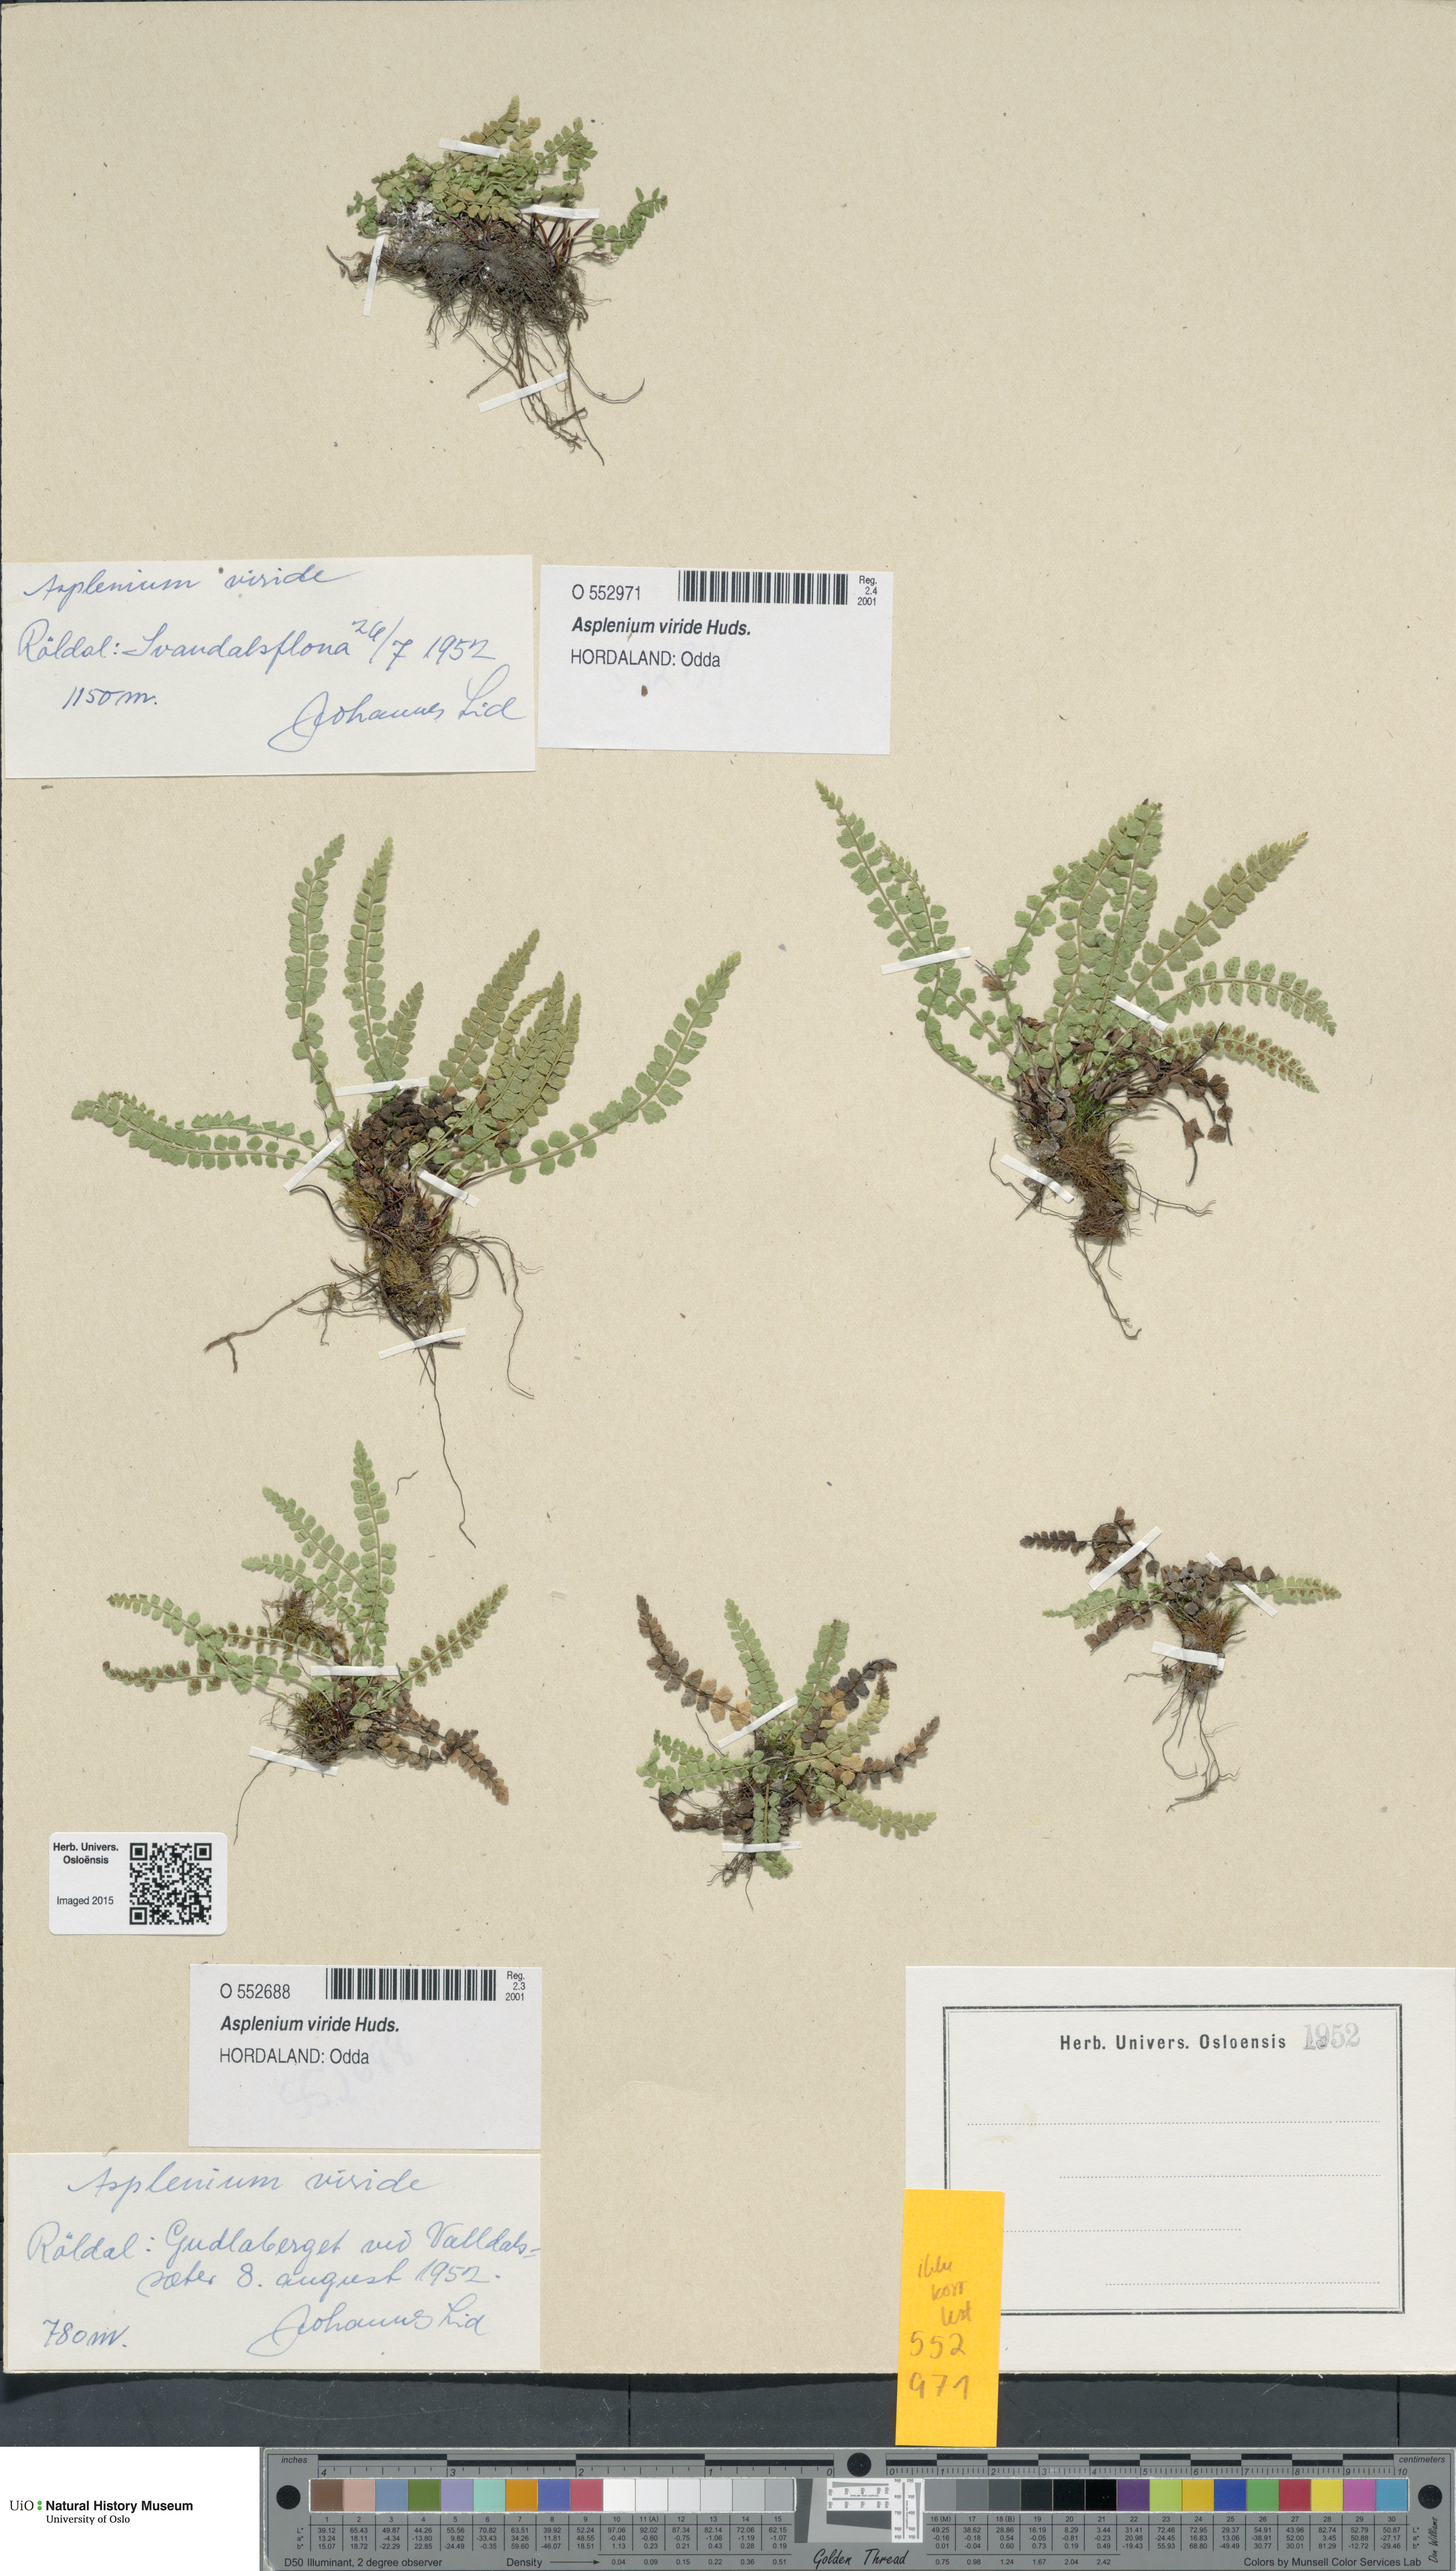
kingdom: Plantae
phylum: Tracheophyta
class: Polypodiopsida
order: Polypodiales
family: Aspleniaceae
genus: Asplenium
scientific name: Asplenium viride
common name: Green spleenwort
